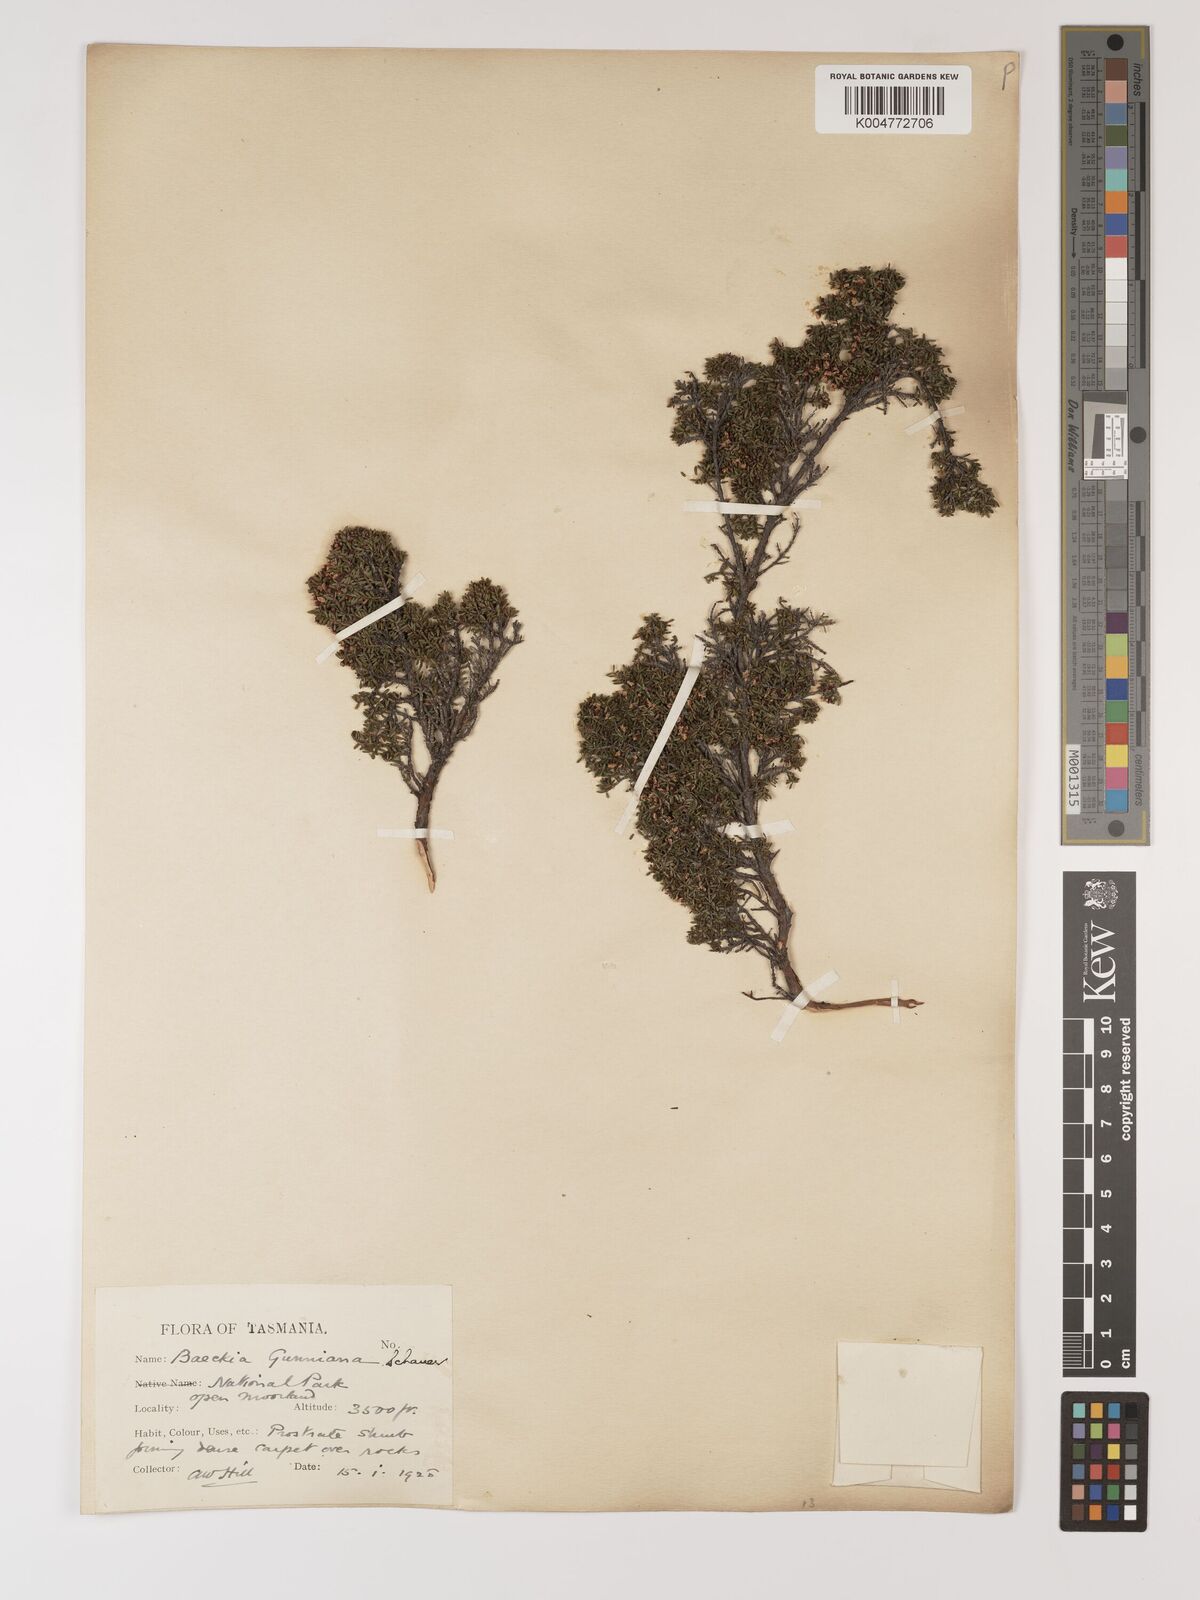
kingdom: Plantae
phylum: Tracheophyta
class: Magnoliopsida
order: Myrtales
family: Myrtaceae
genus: Baeckea
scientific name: Baeckea gunniana
